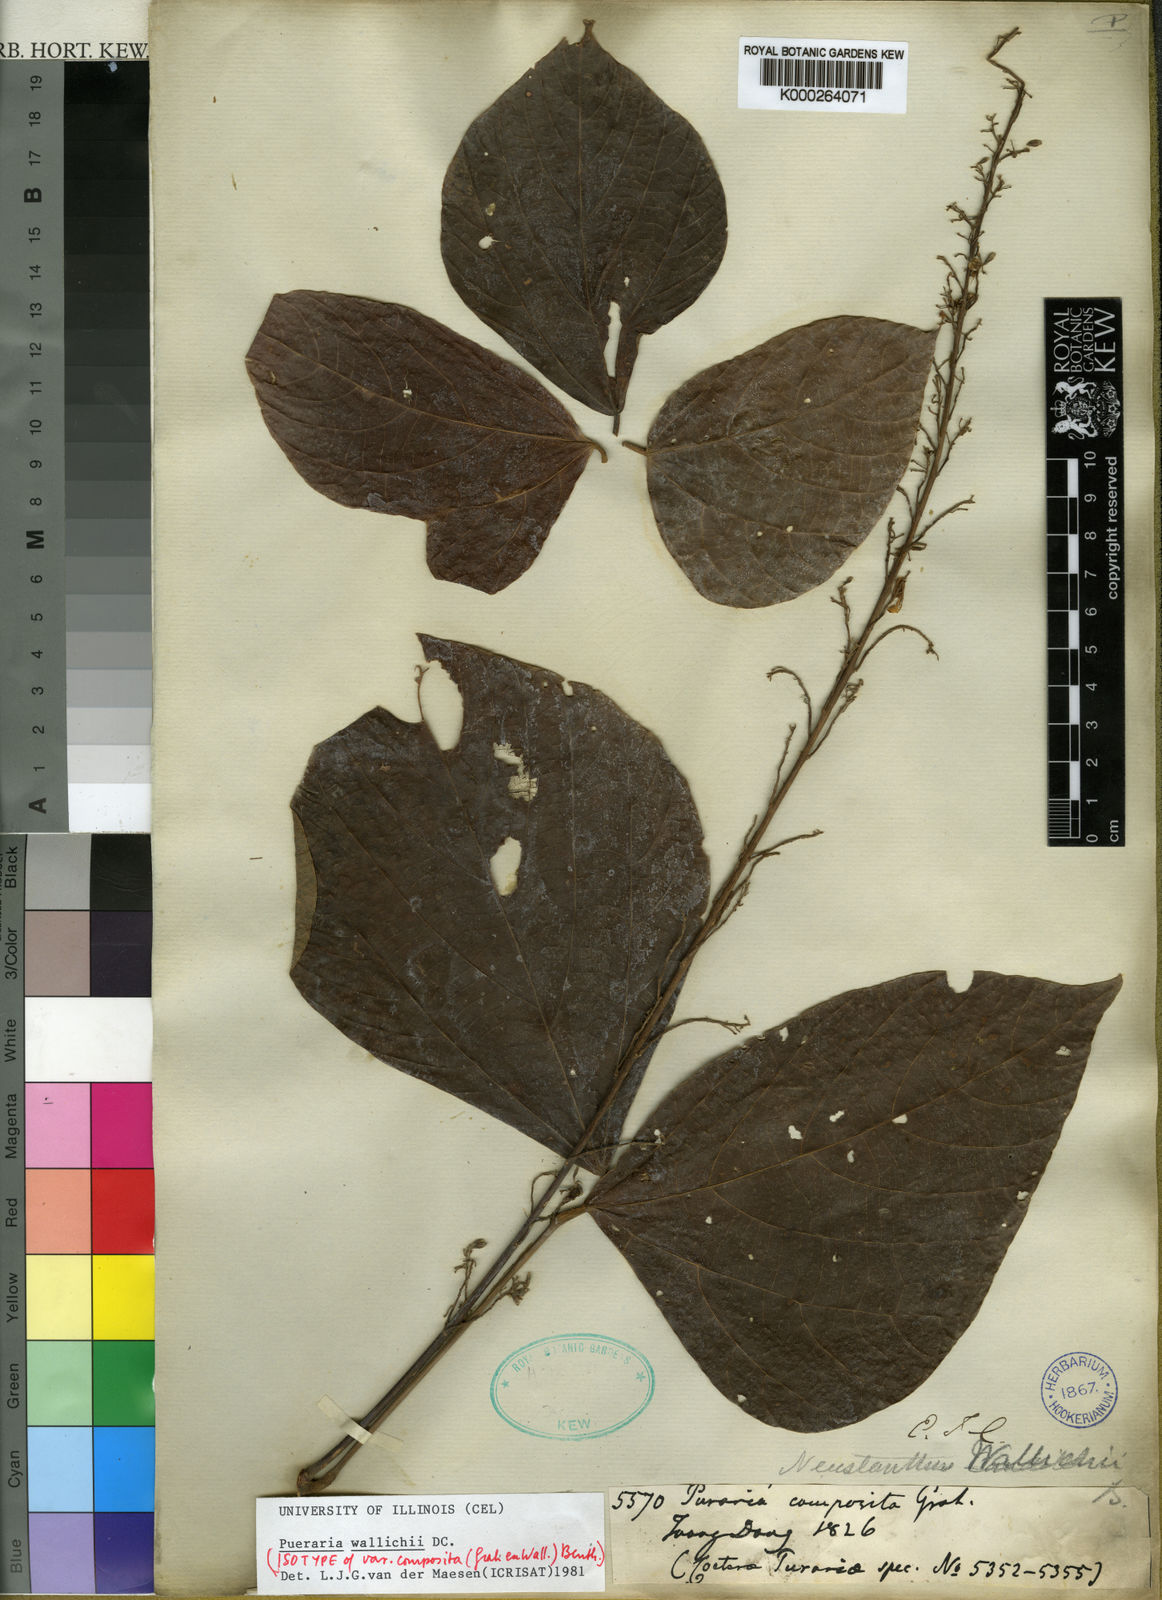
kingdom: Plantae
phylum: Tracheophyta
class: Magnoliopsida
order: Fabales
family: Fabaceae
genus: Haymondia
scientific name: Haymondia wallichii
